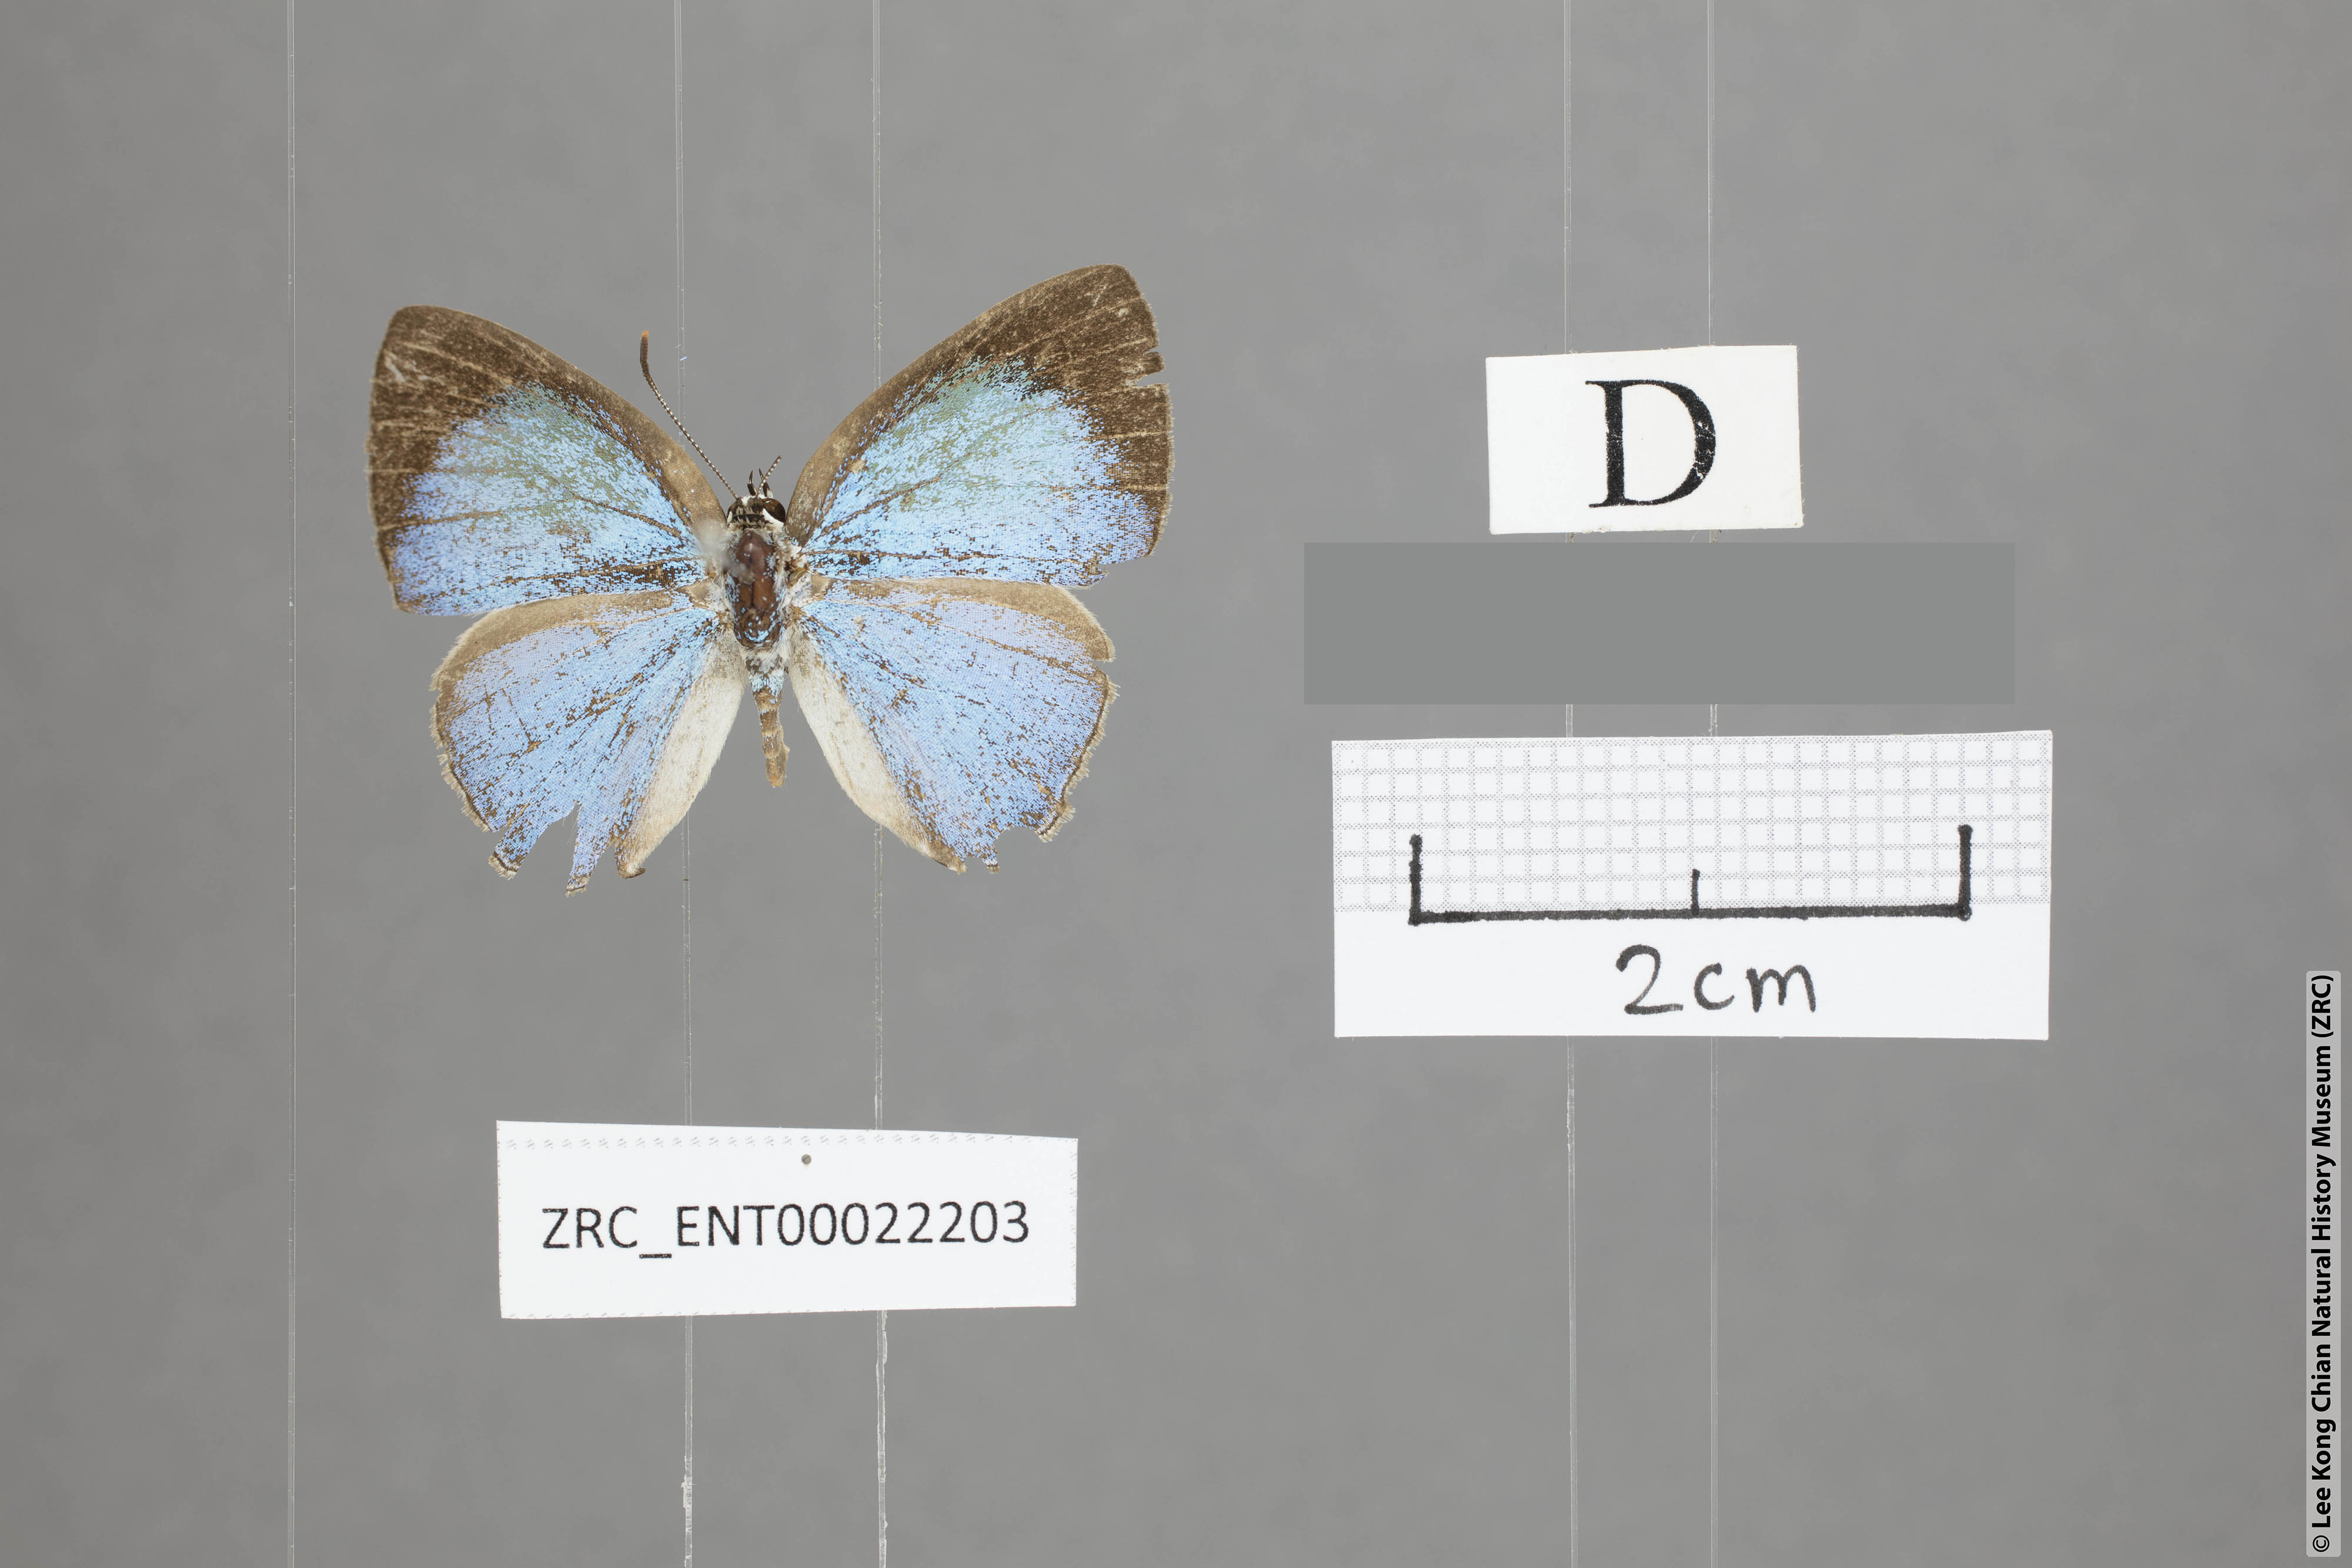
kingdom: Animalia
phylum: Arthropoda
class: Insecta
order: Lepidoptera
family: Lycaenidae
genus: Tajuria
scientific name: Tajuria isaeus
